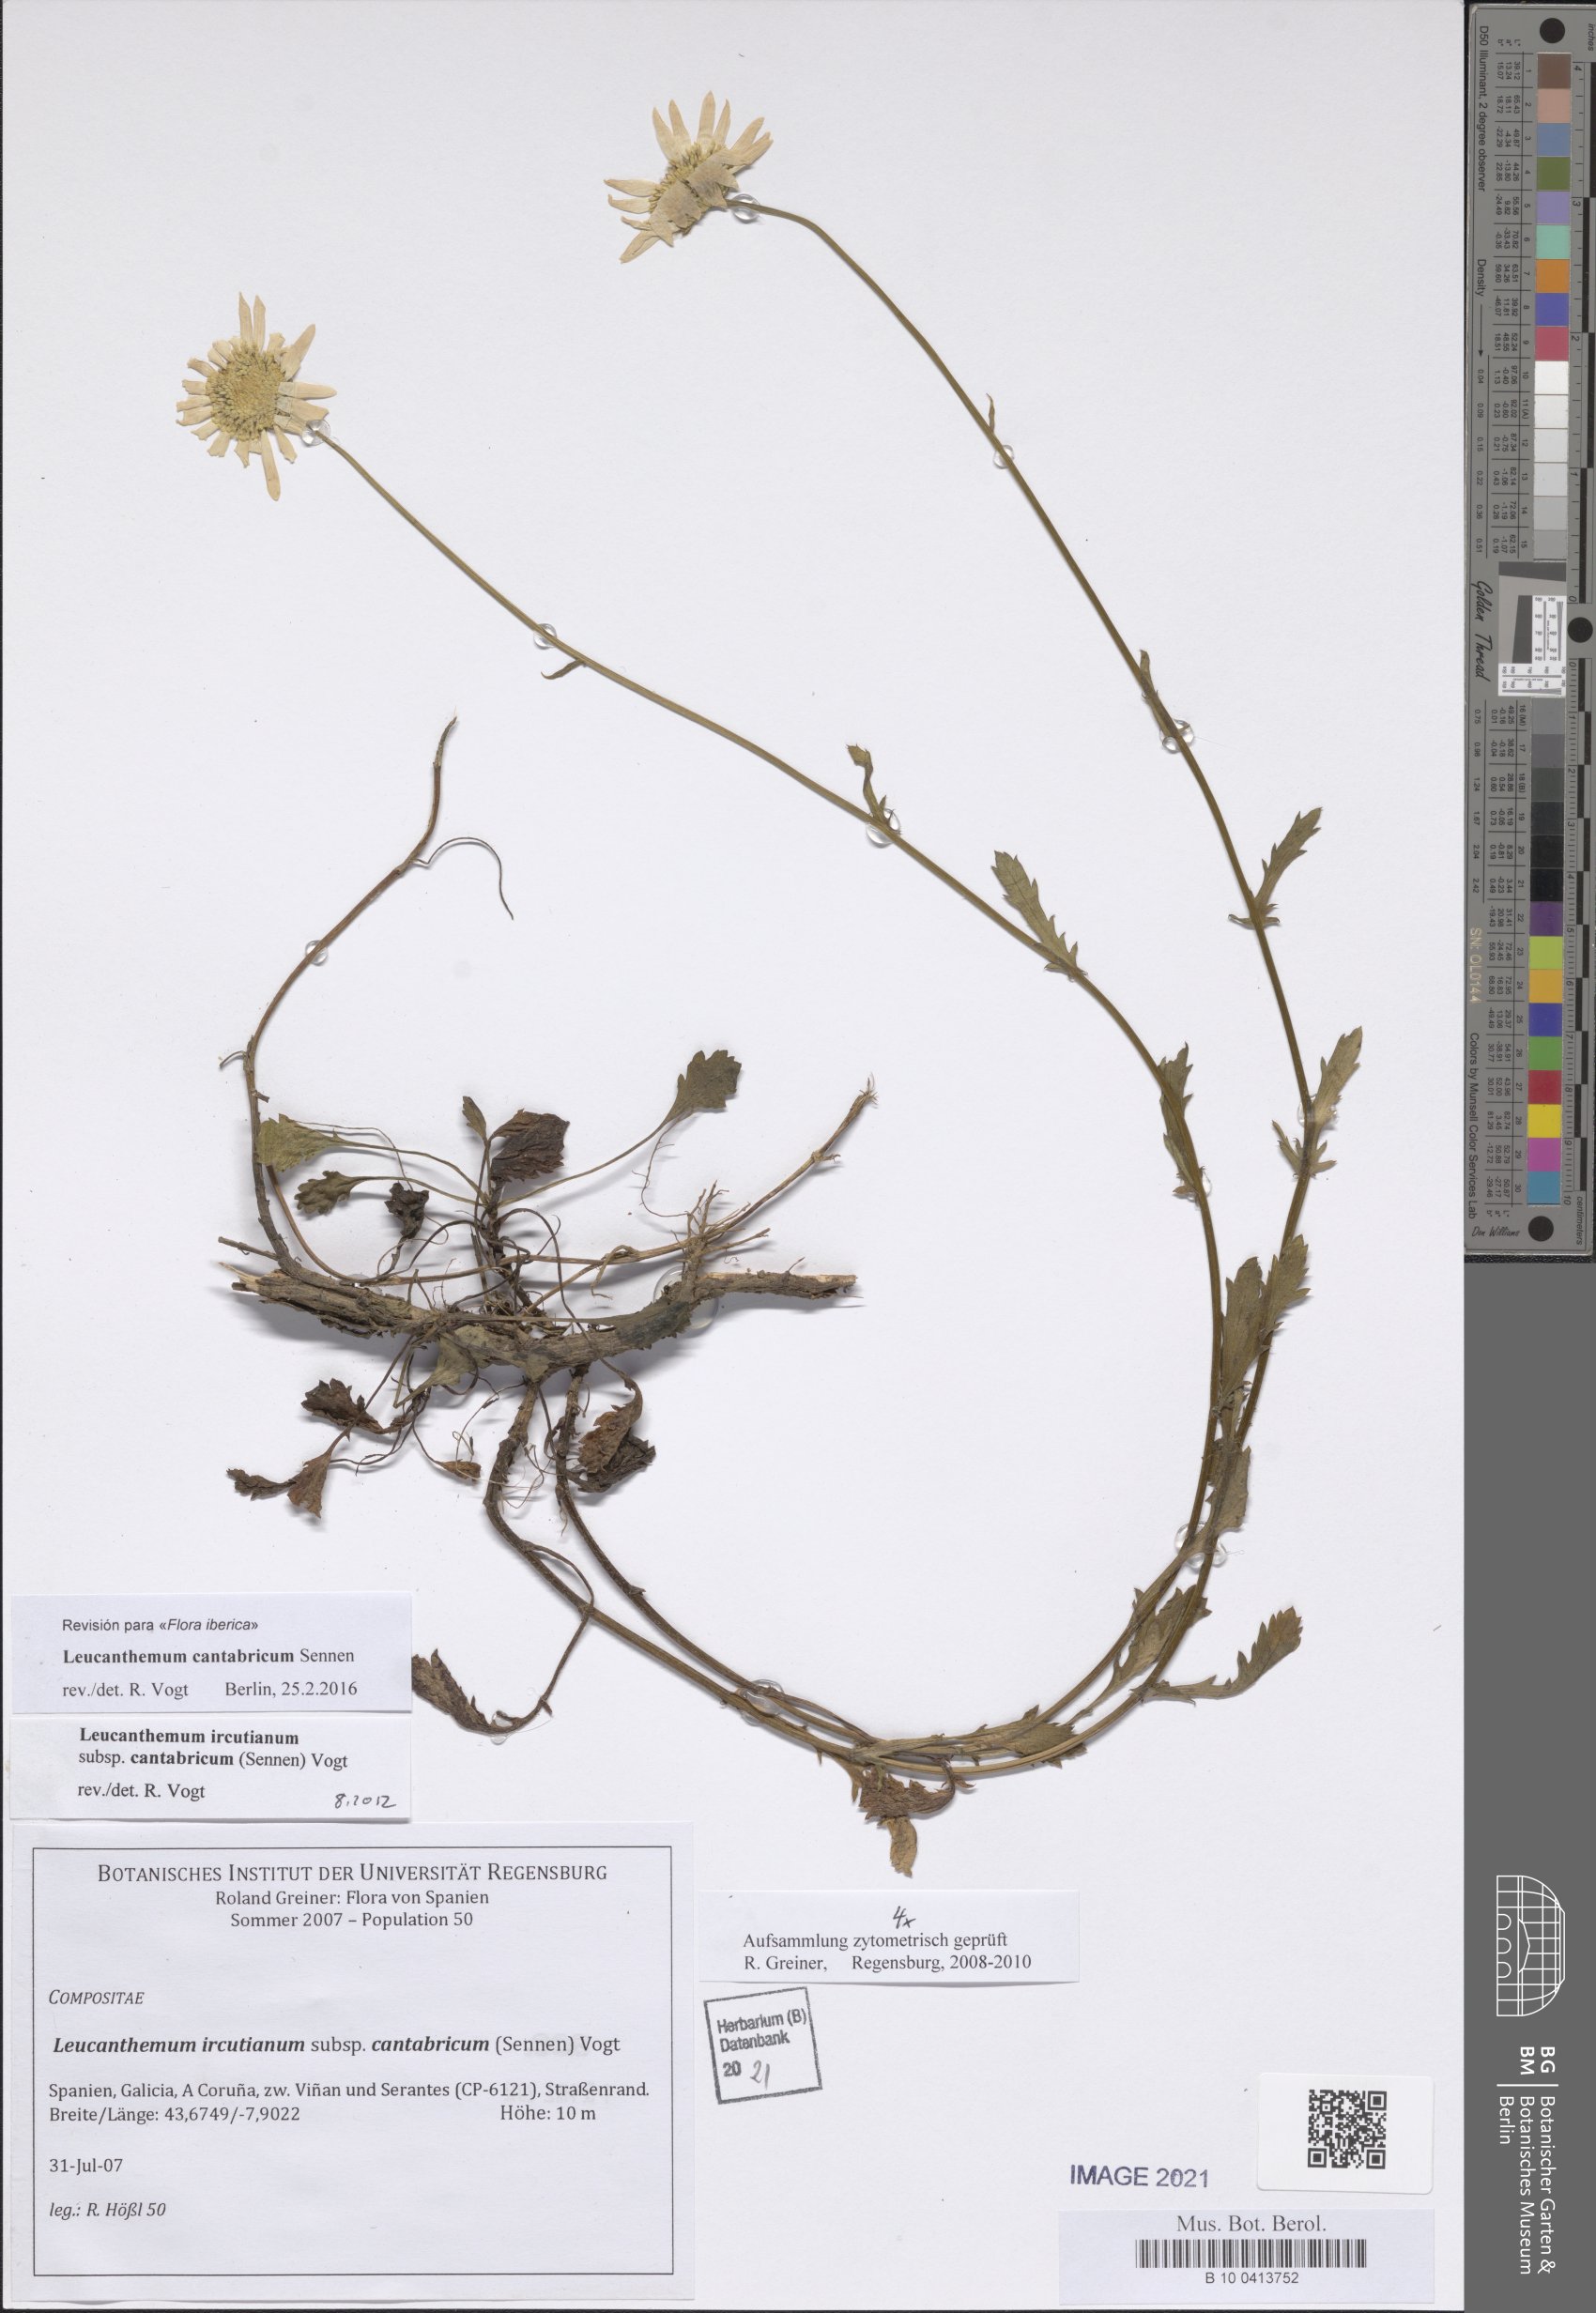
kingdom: Plantae
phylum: Tracheophyta
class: Magnoliopsida
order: Asterales
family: Asteraceae
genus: Leucanthemum
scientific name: Leucanthemum cantabricum
